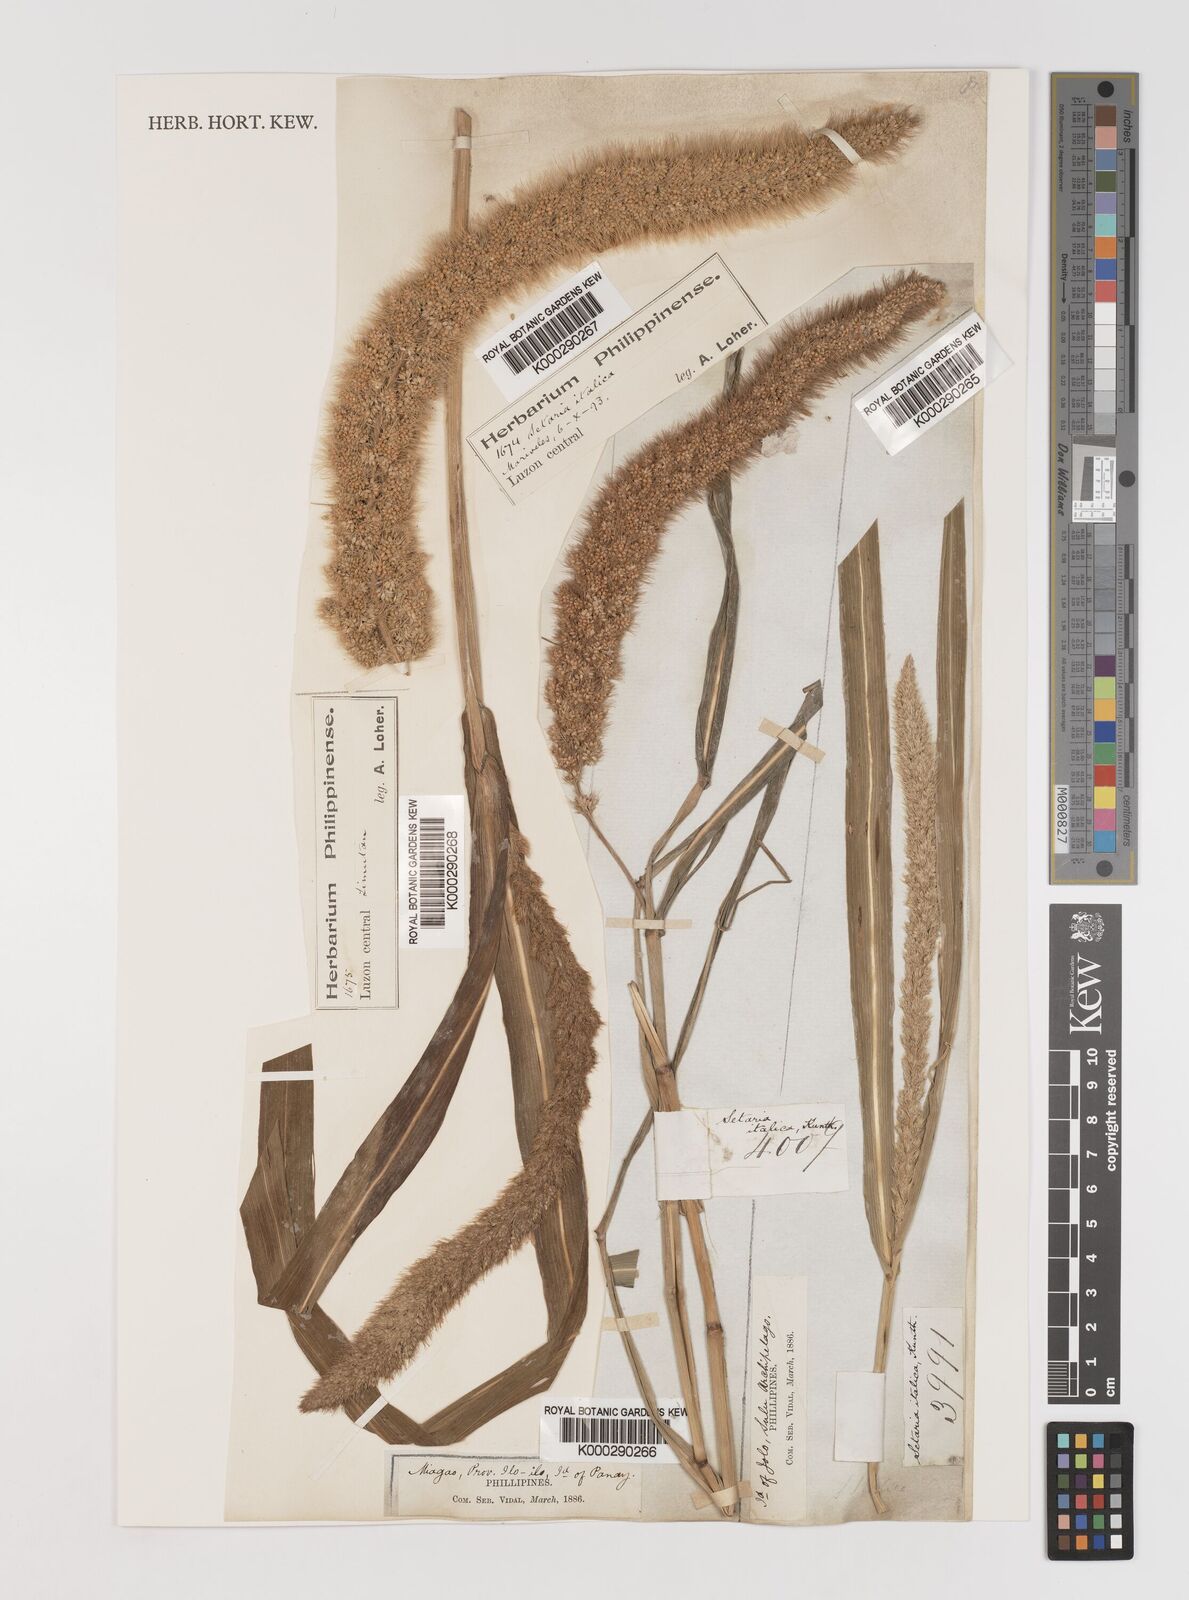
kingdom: Plantae
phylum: Tracheophyta
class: Liliopsida
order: Poales
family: Poaceae
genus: Setaria
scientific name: Setaria viridis
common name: Green bristlegrass
